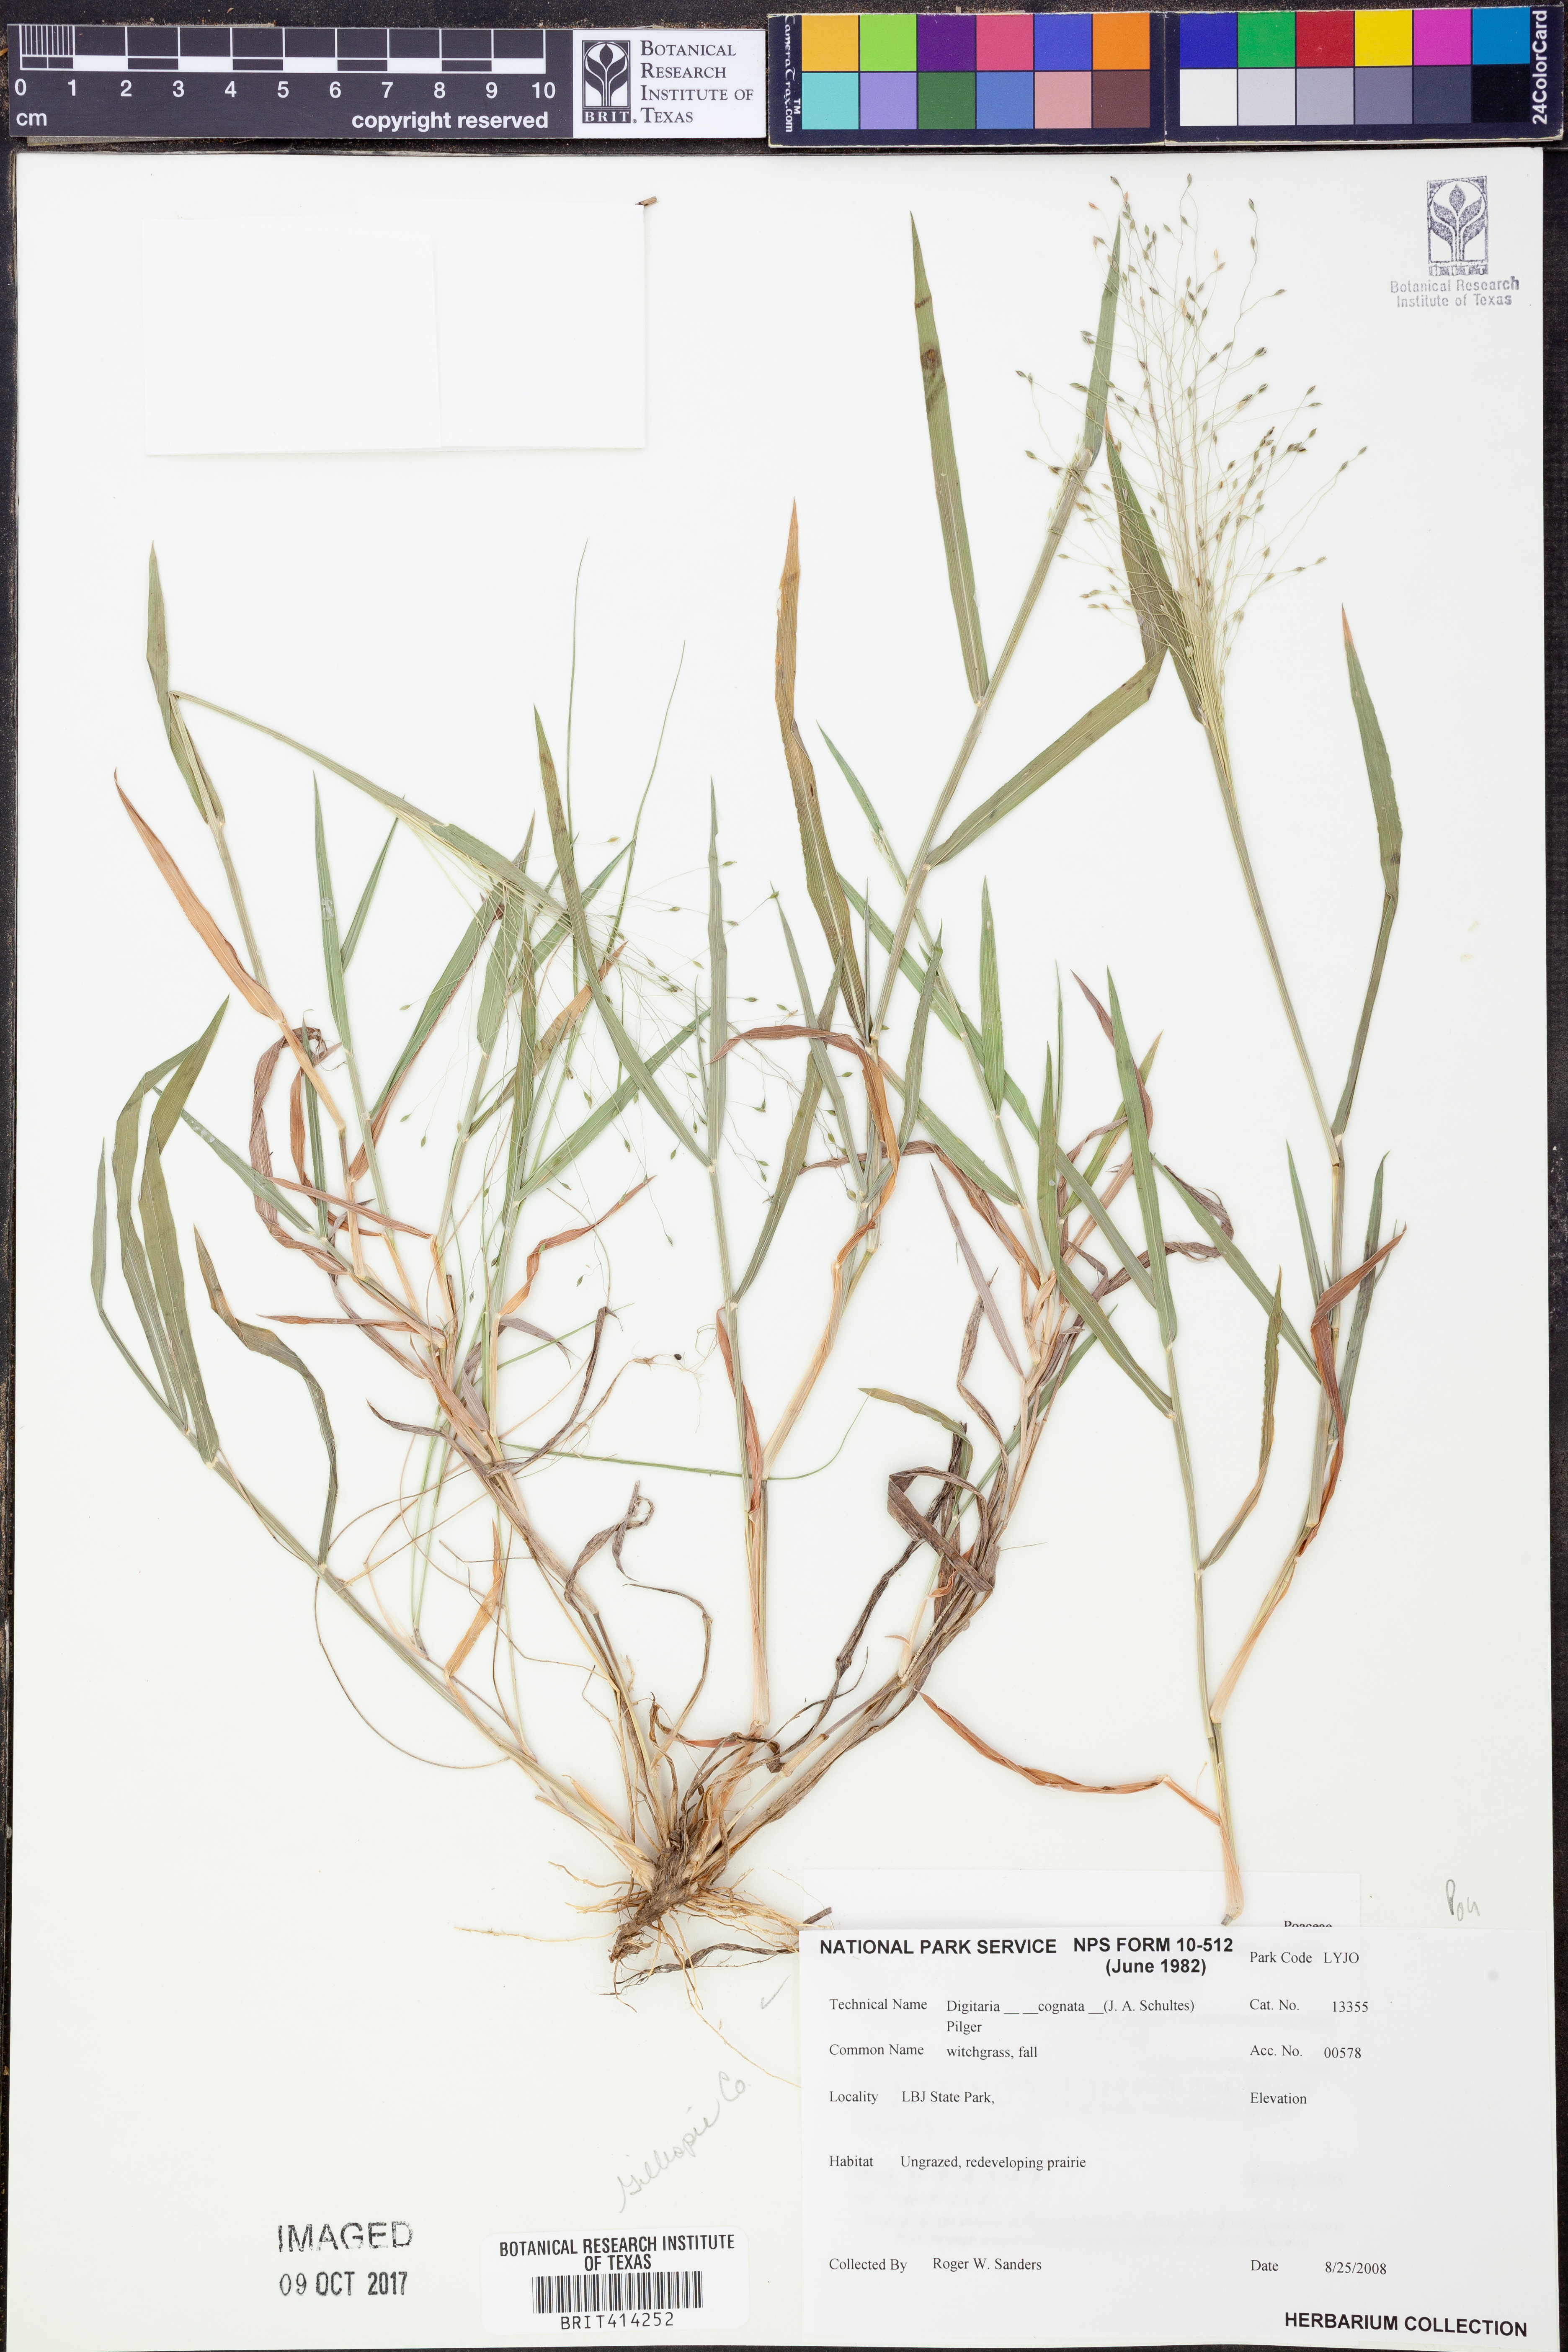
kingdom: Plantae
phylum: Tracheophyta
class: Liliopsida
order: Poales
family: Poaceae
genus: Digitaria
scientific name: Digitaria cognata
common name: Fall witchgrass
